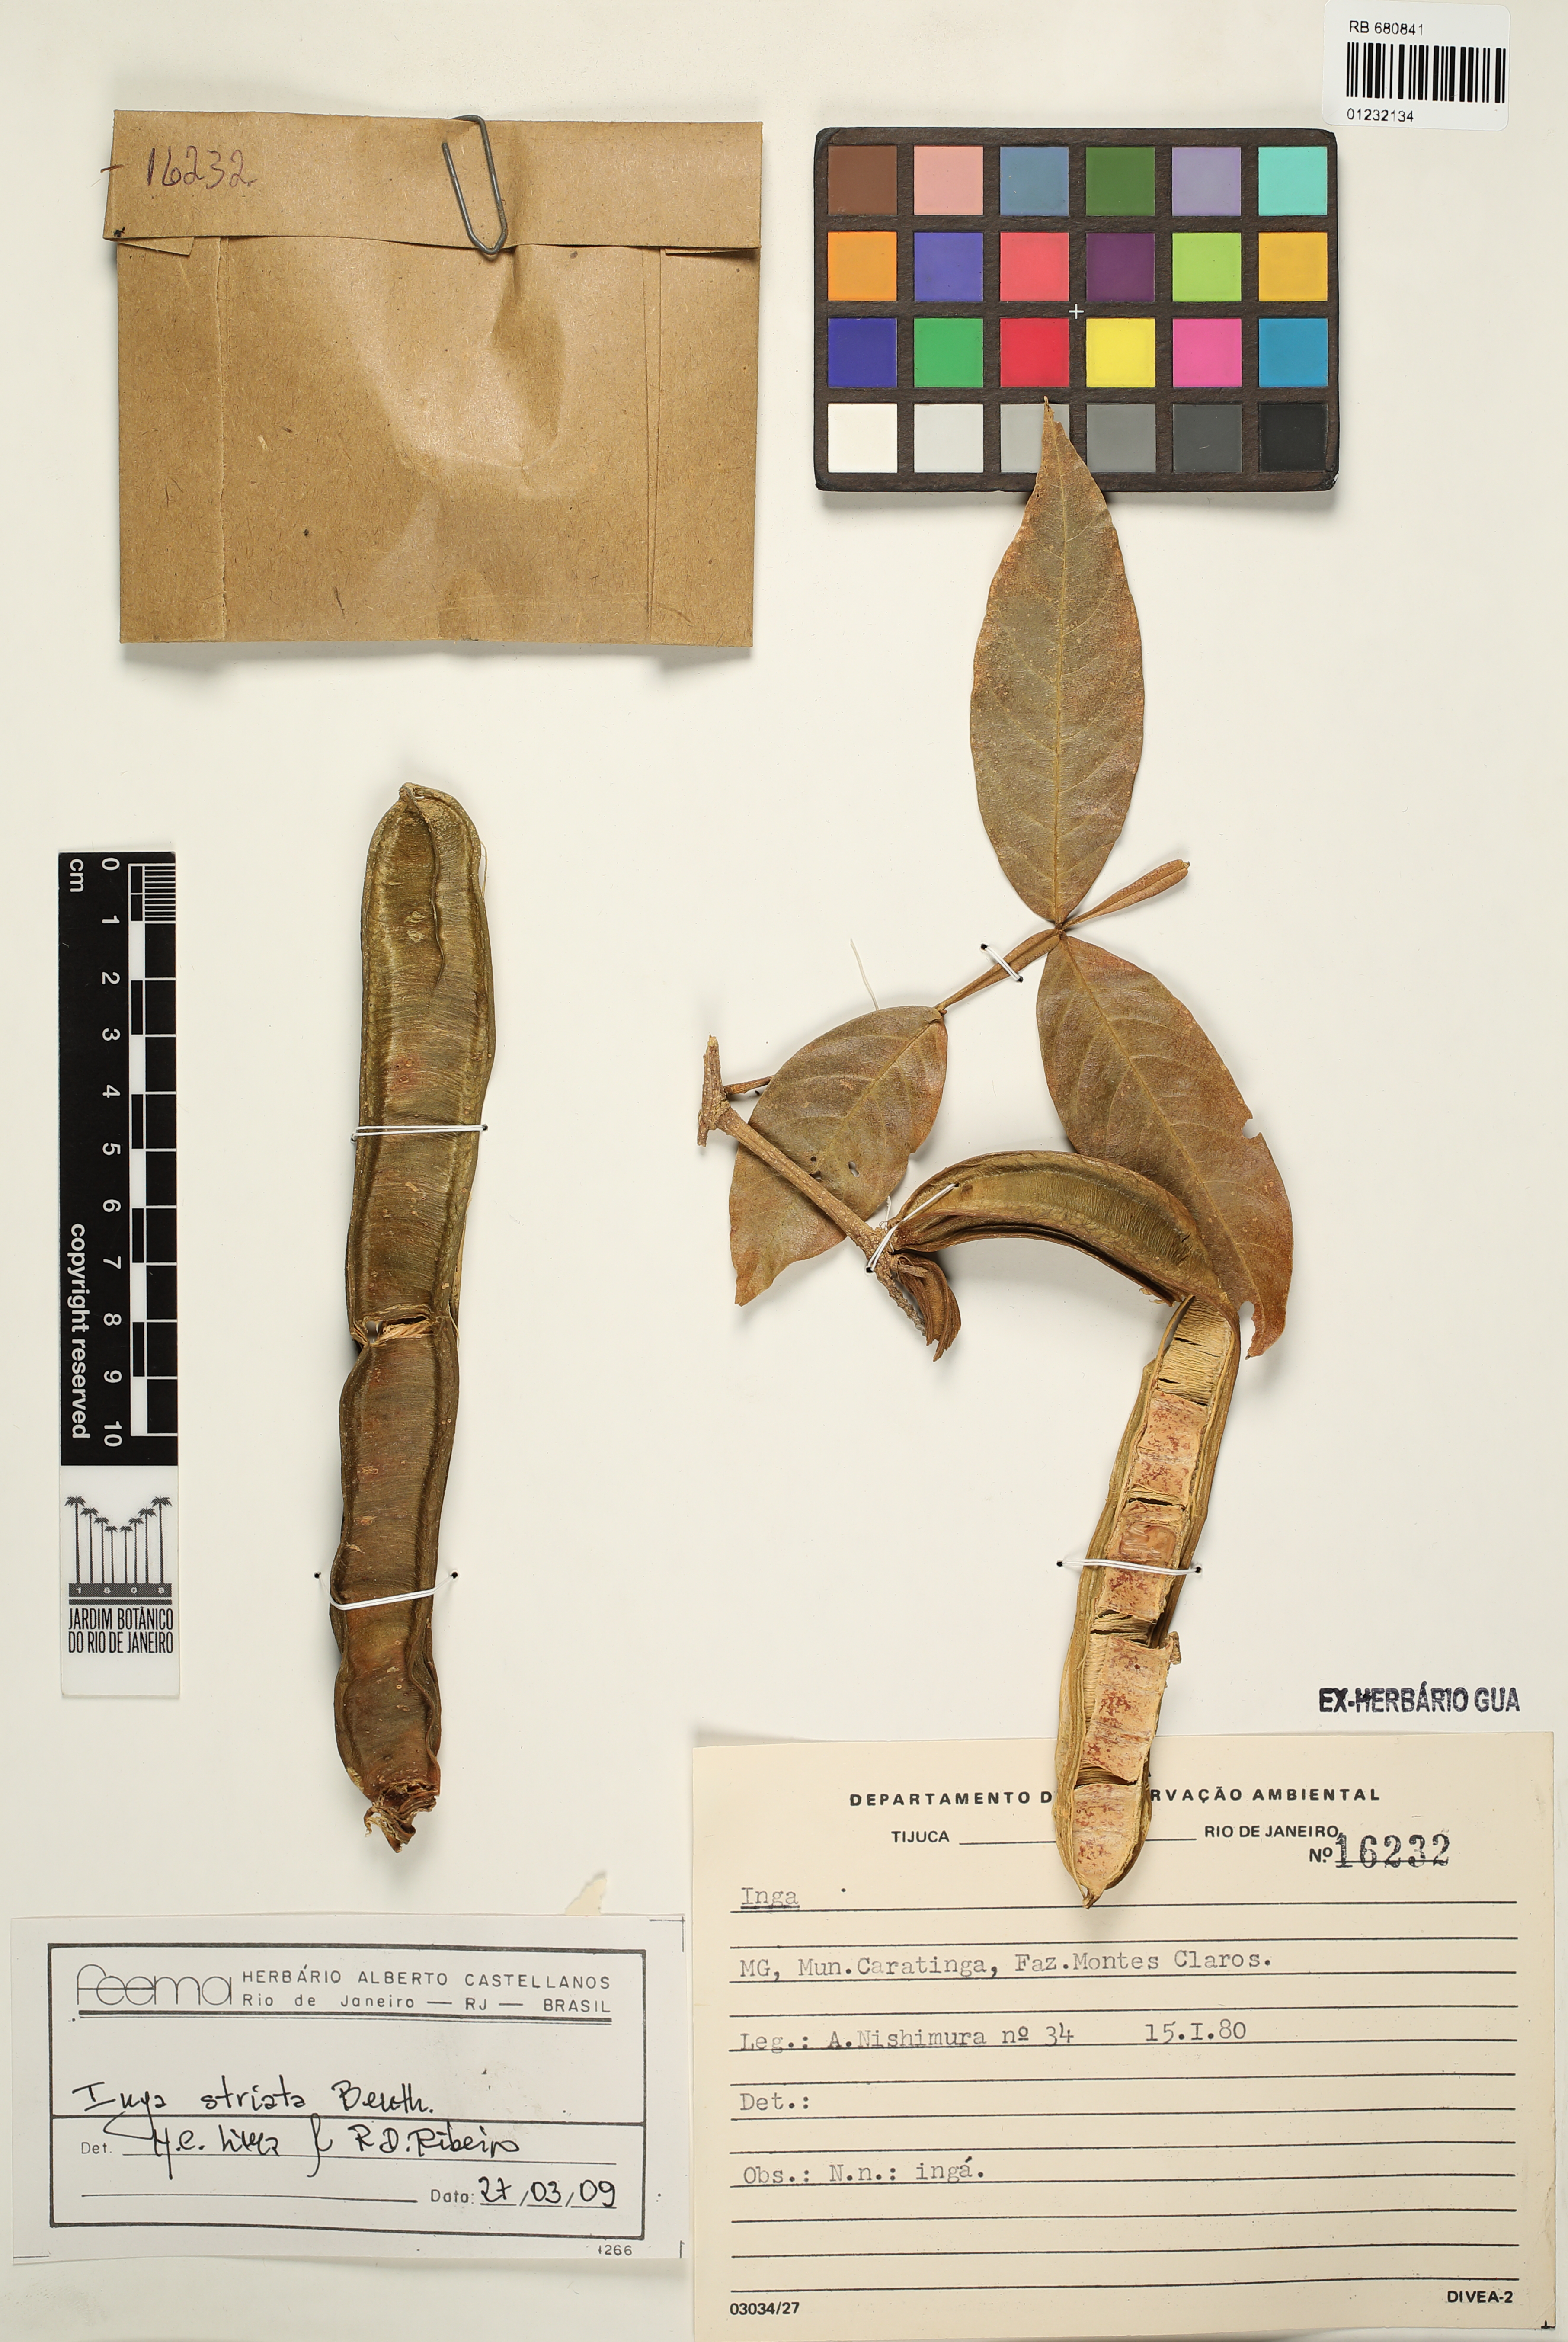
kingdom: Plantae
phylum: Tracheophyta
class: Magnoliopsida
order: Fabales
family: Fabaceae
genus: Inga
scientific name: Inga striata
